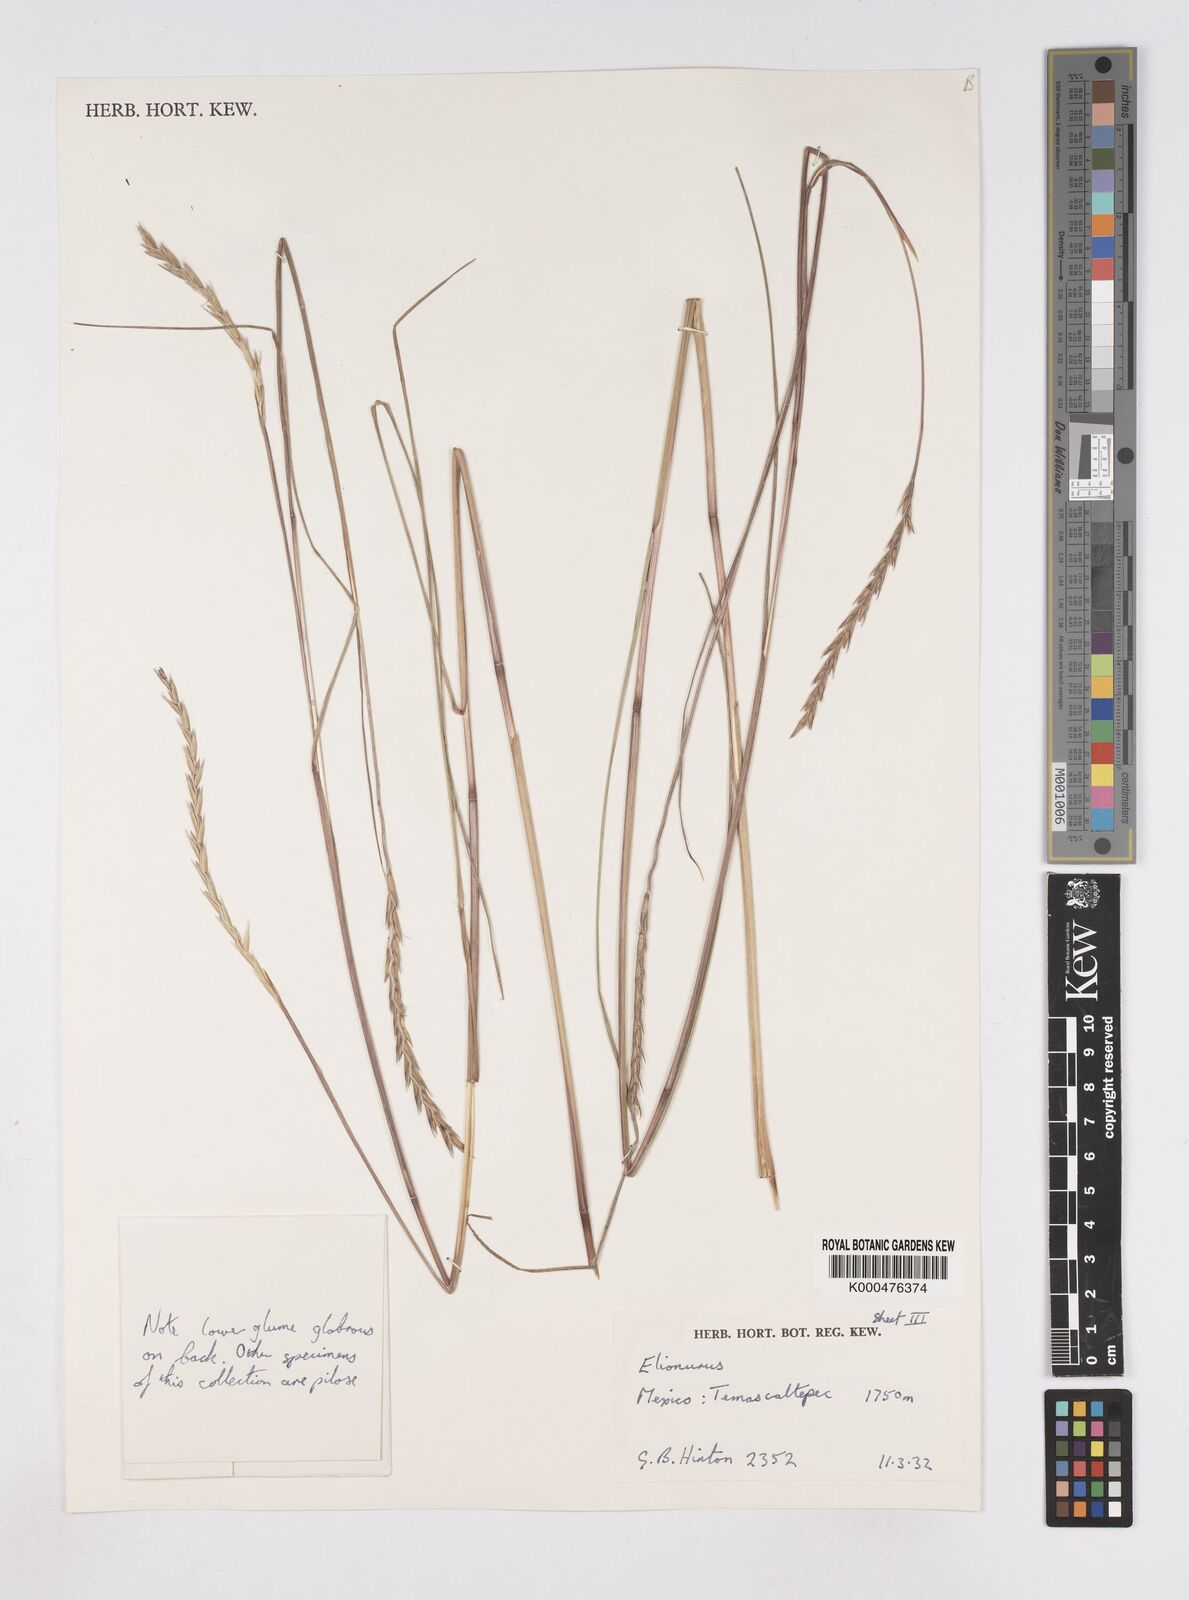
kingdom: Plantae
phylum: Tracheophyta
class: Liliopsida
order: Poales
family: Poaceae
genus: Elionurus
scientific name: Elionurus tripsacoides
